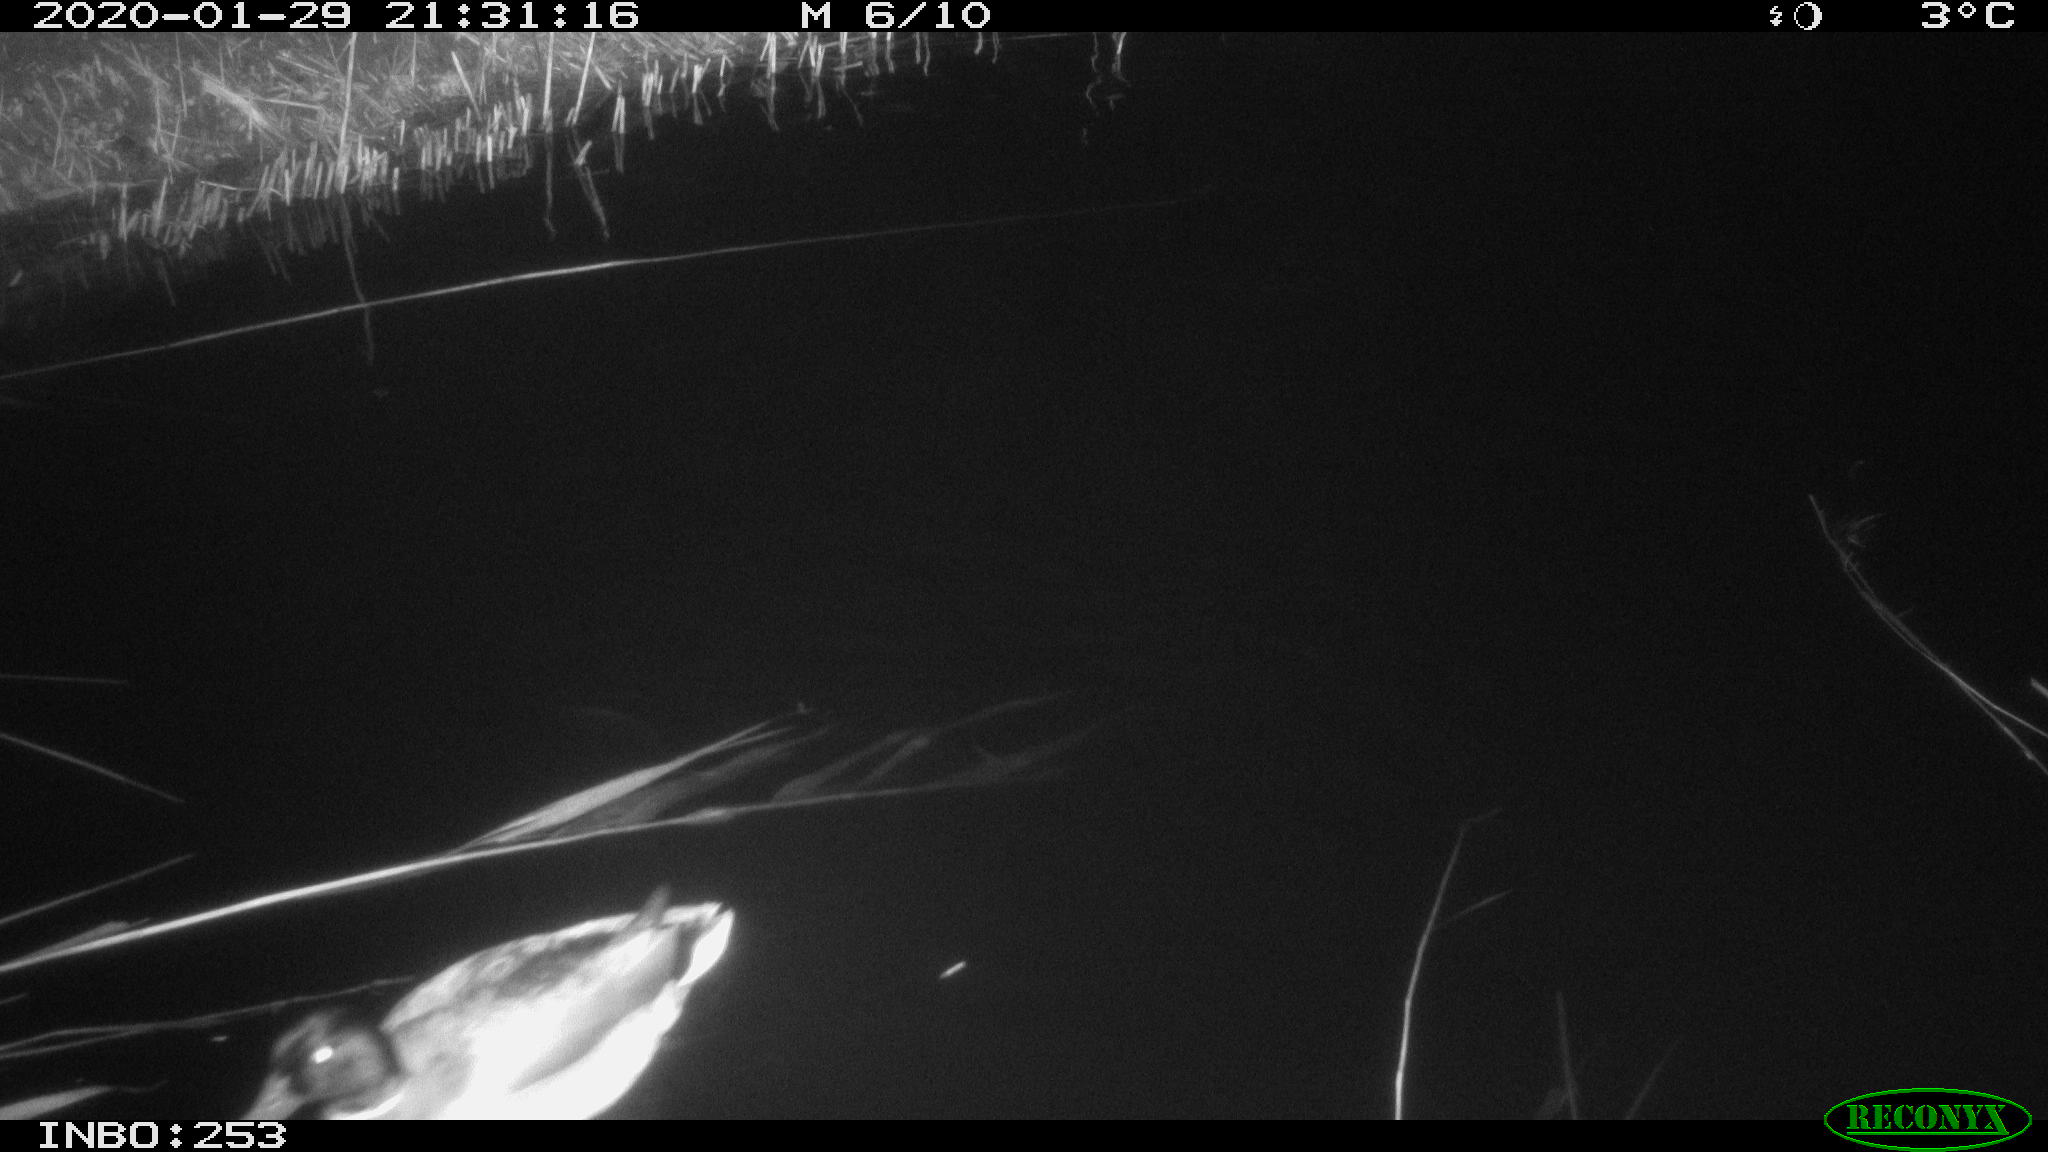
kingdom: Animalia
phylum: Chordata
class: Aves
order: Anseriformes
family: Anatidae
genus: Anas
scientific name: Anas platyrhynchos
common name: Mallard
